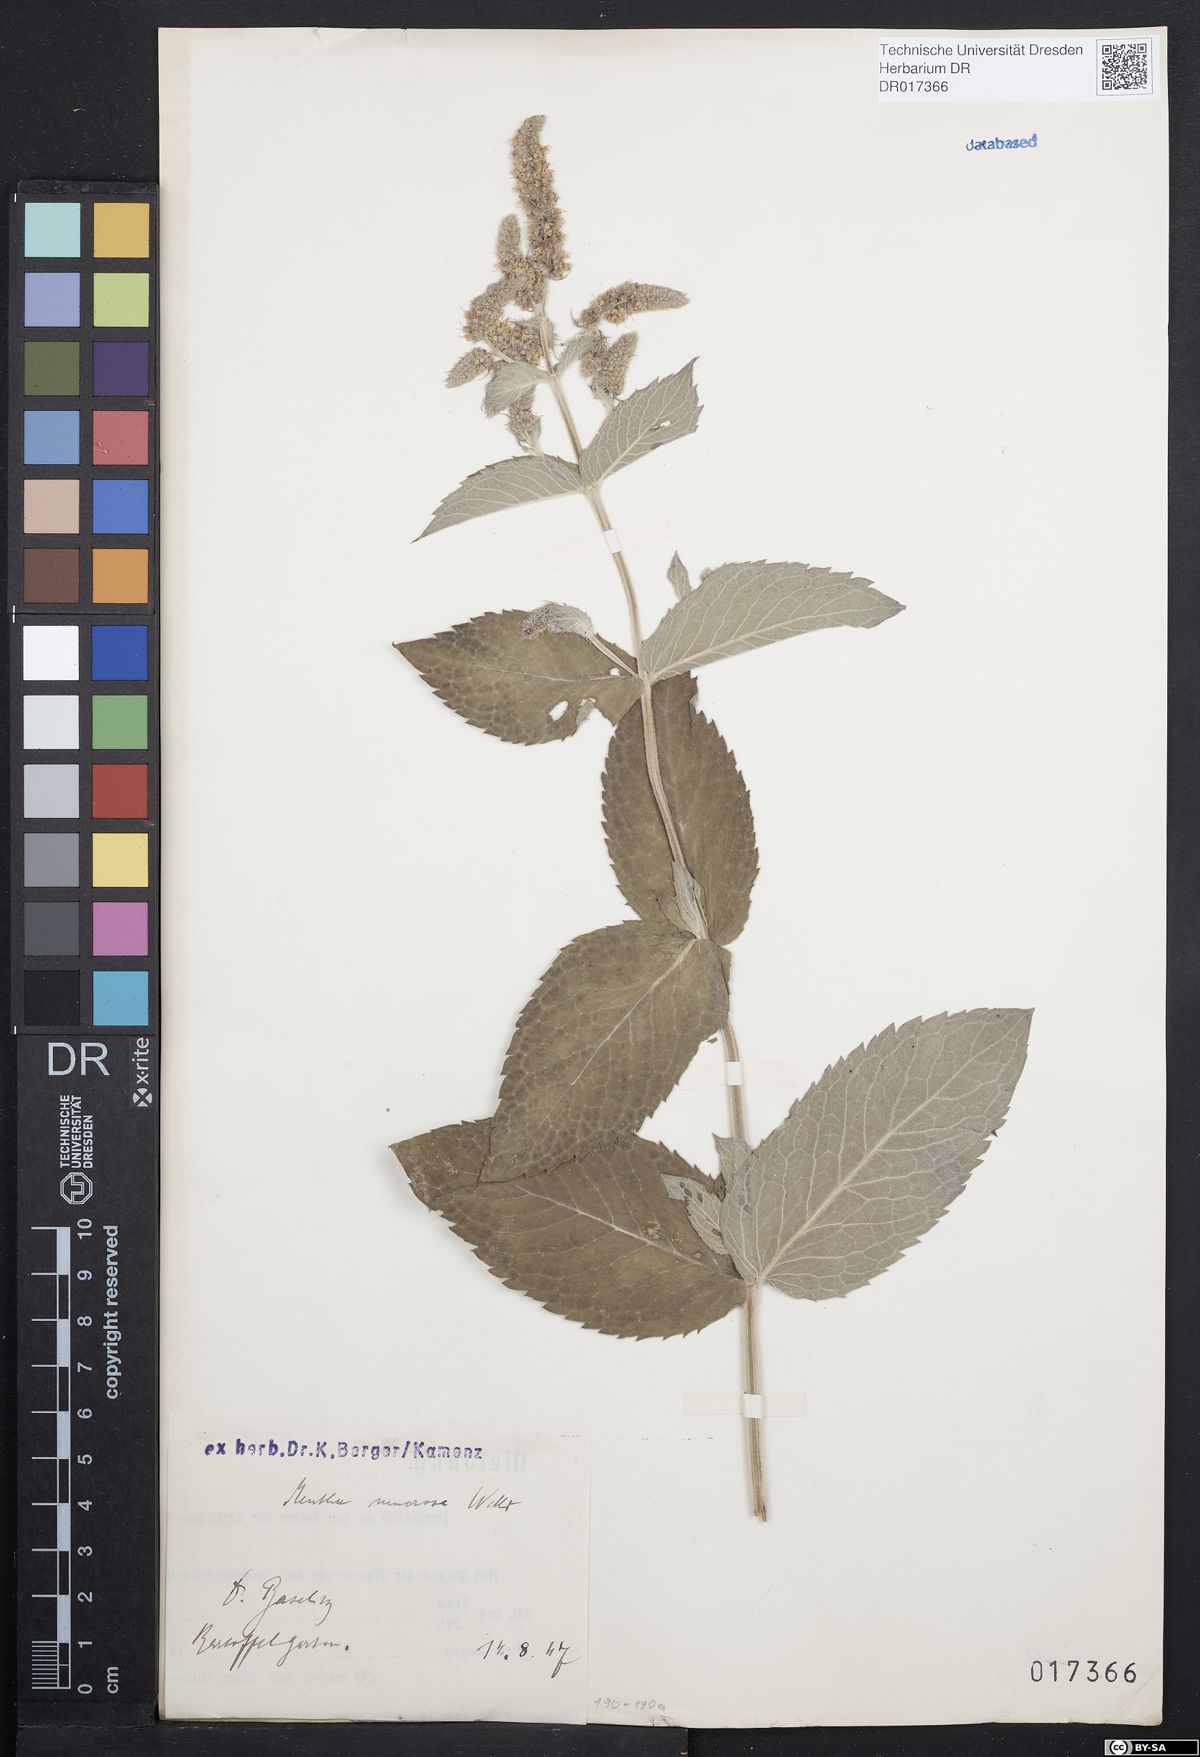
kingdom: Plantae
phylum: Tracheophyta
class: Magnoliopsida
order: Lamiales
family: Lamiaceae
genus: Mentha
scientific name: Mentha villosa
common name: Apple mint
